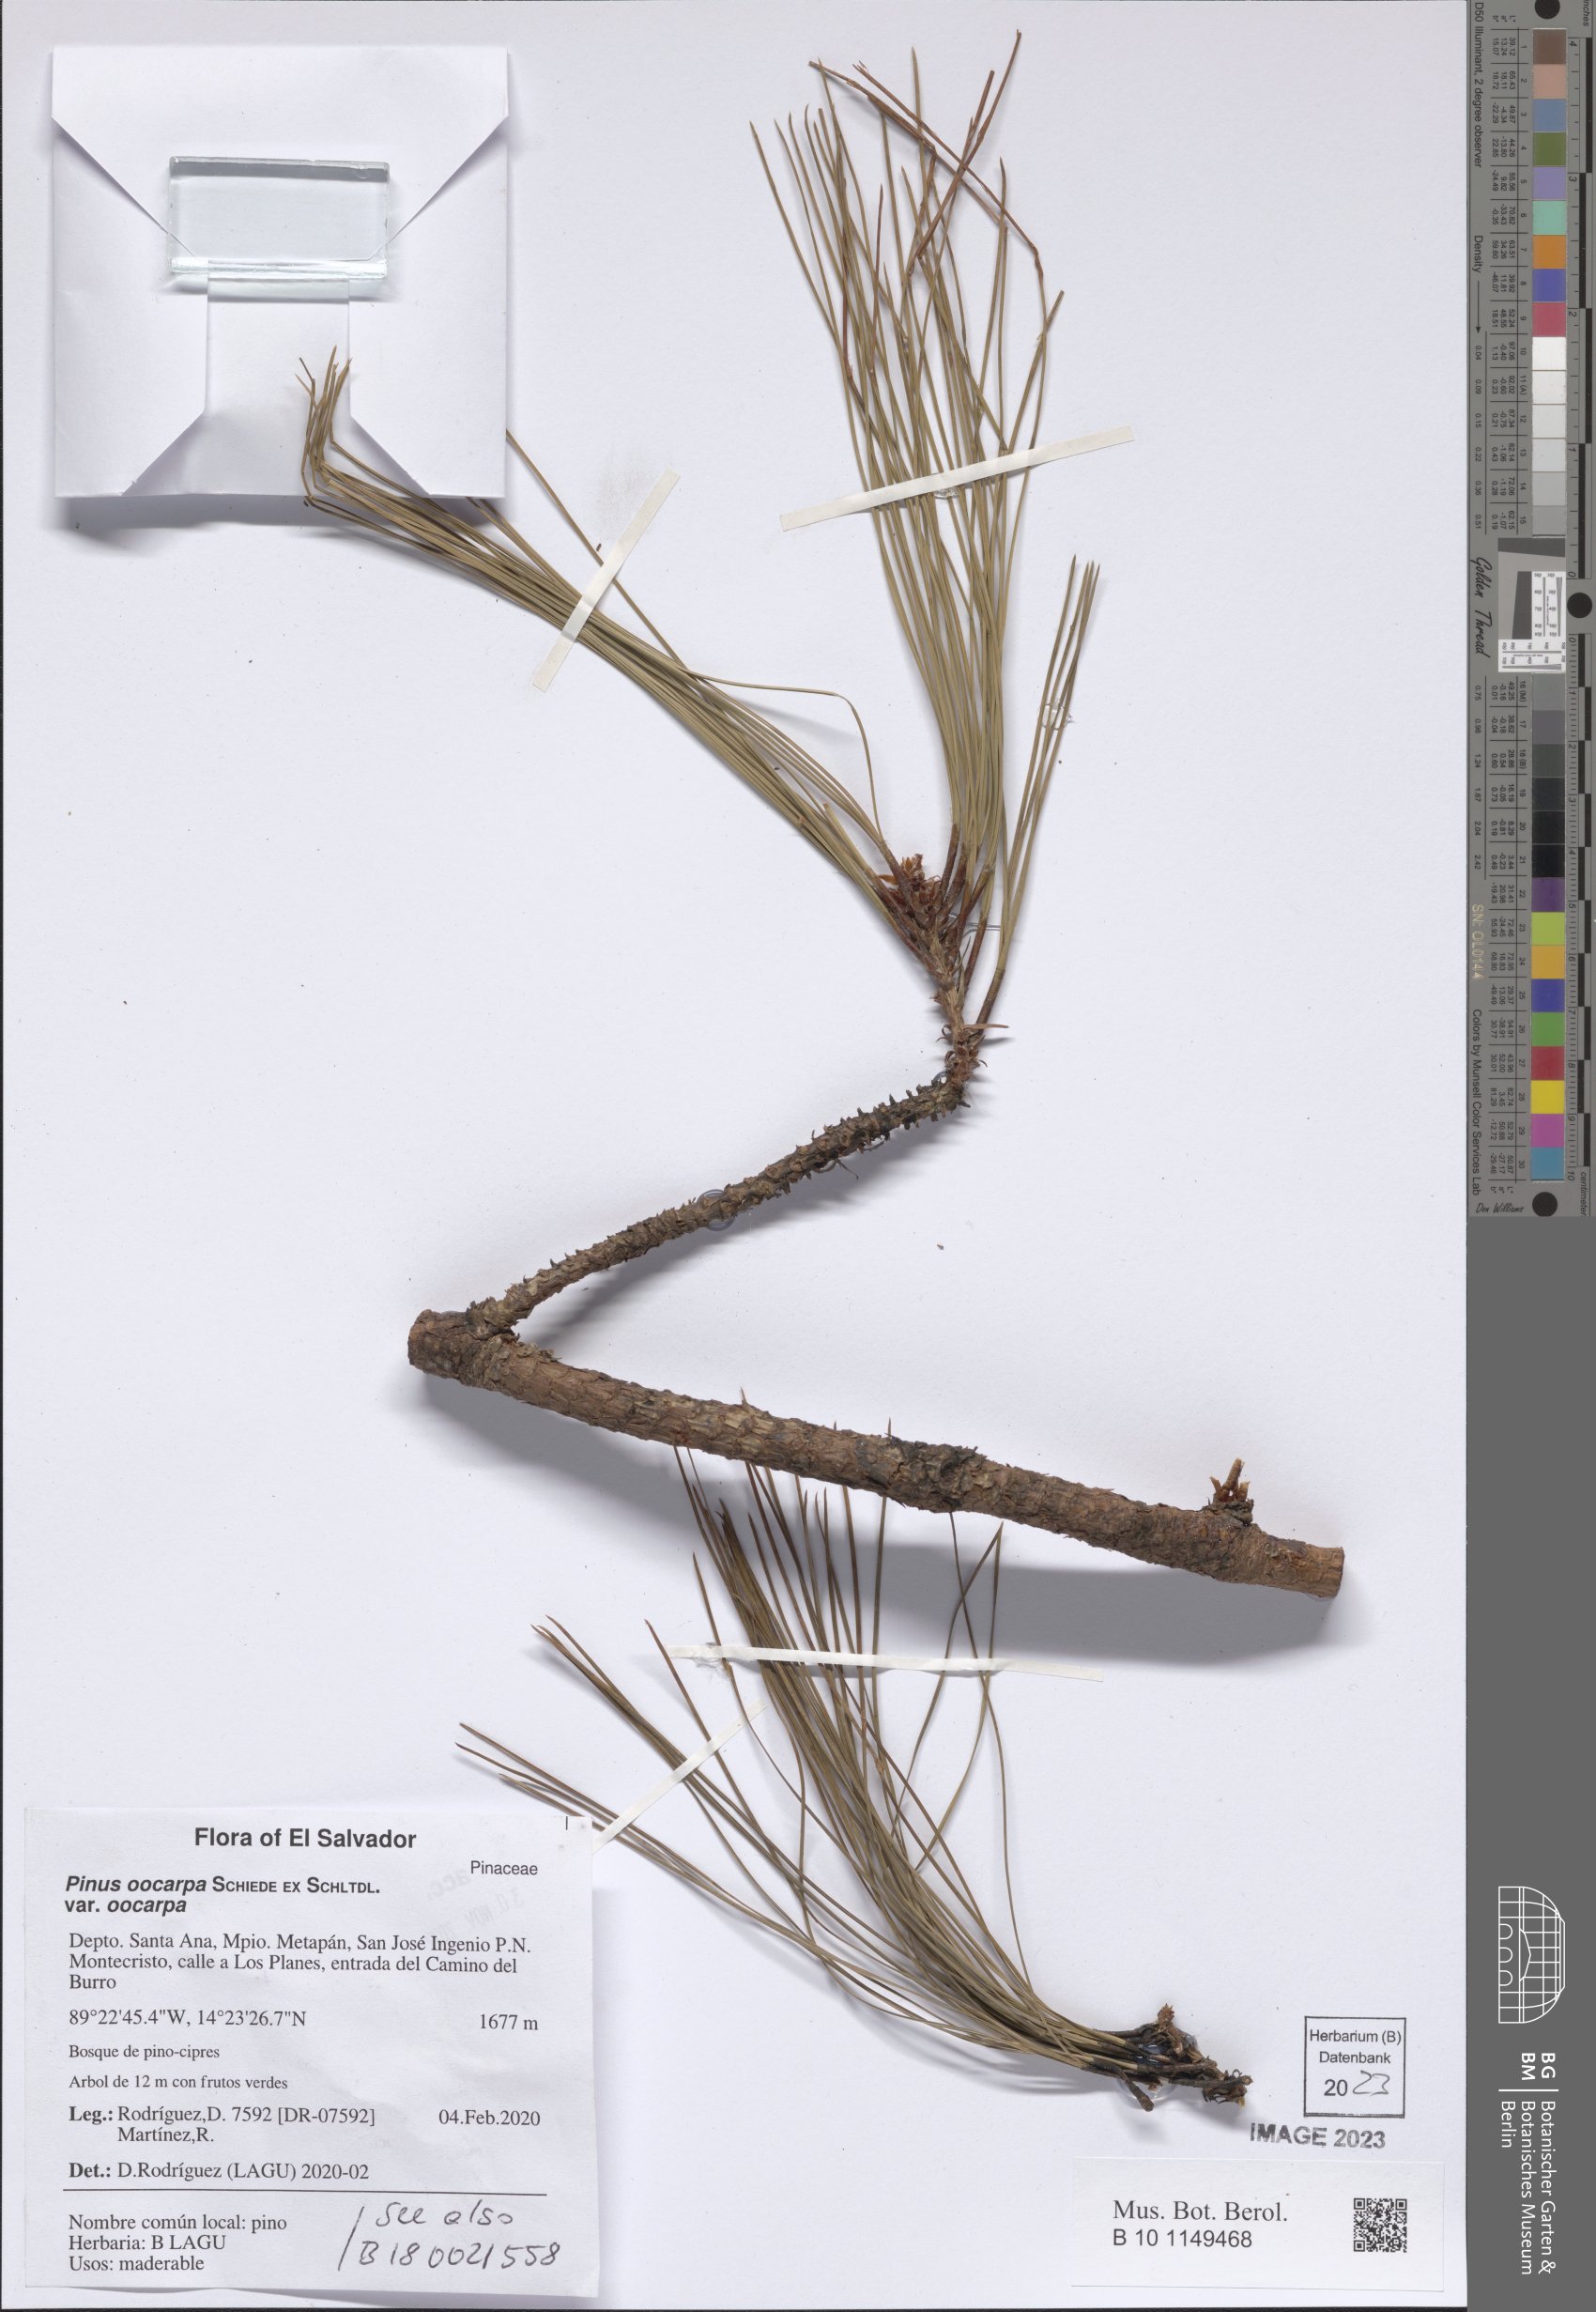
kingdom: Plantae
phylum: Tracheophyta
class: Pinopsida
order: Pinales
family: Pinaceae
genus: Pinus
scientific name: Pinus oocarpa
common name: Egg-cone pine
